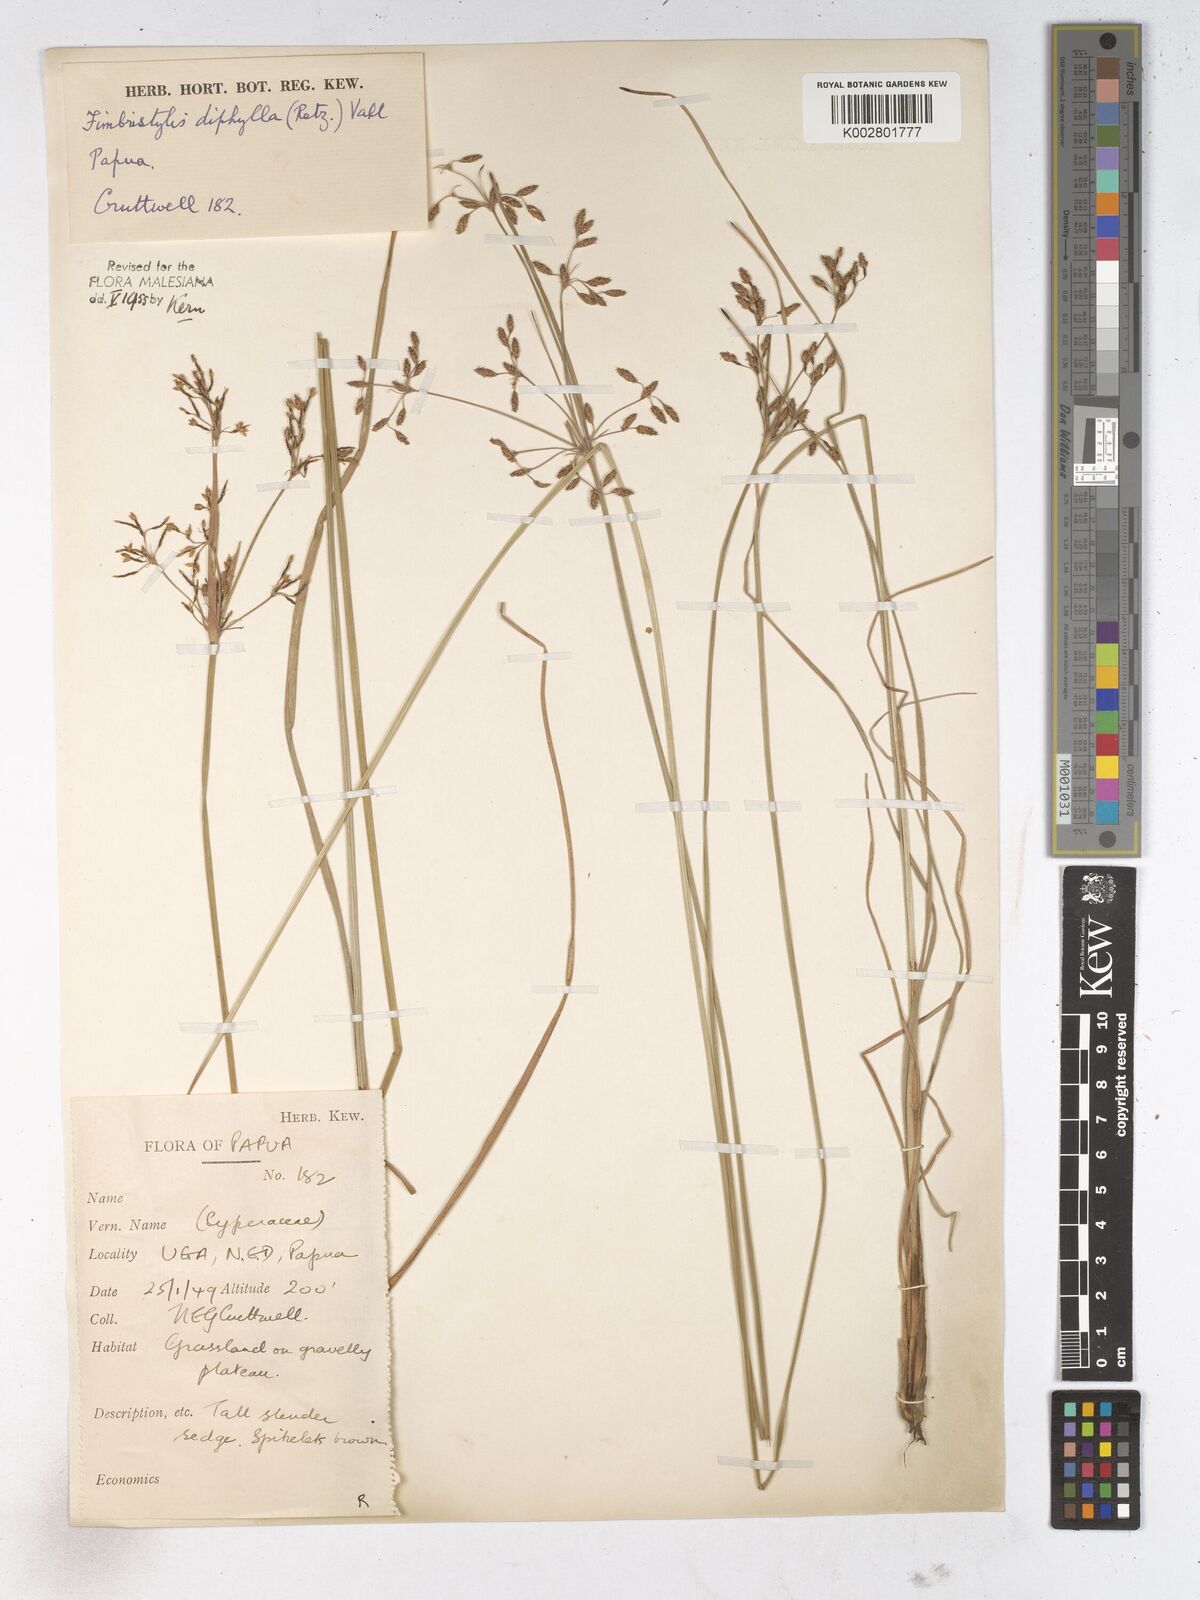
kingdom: Plantae
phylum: Tracheophyta
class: Liliopsida
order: Poales
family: Cyperaceae
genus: Fimbristylis
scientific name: Fimbristylis dichotoma
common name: Forked fimbry
